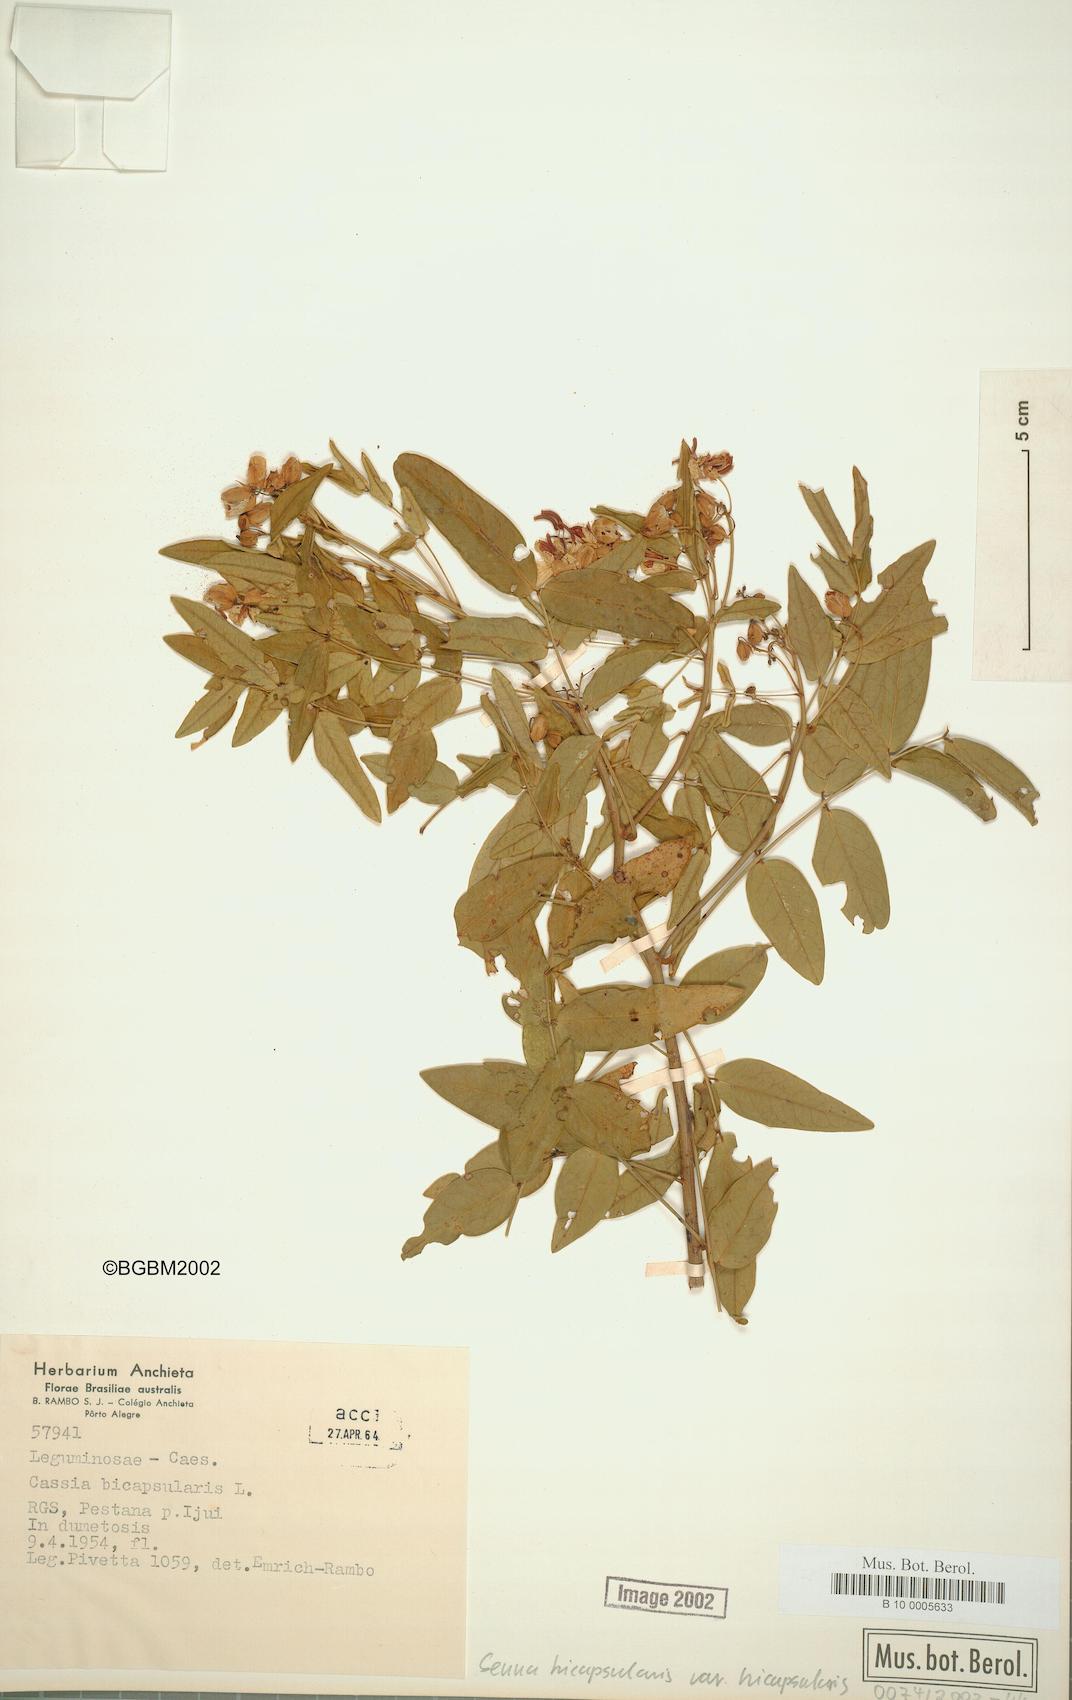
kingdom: Plantae
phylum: Tracheophyta
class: Magnoliopsida
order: Fabales
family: Fabaceae
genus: Senna
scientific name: Senna bicapsularis
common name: Christmasbush
